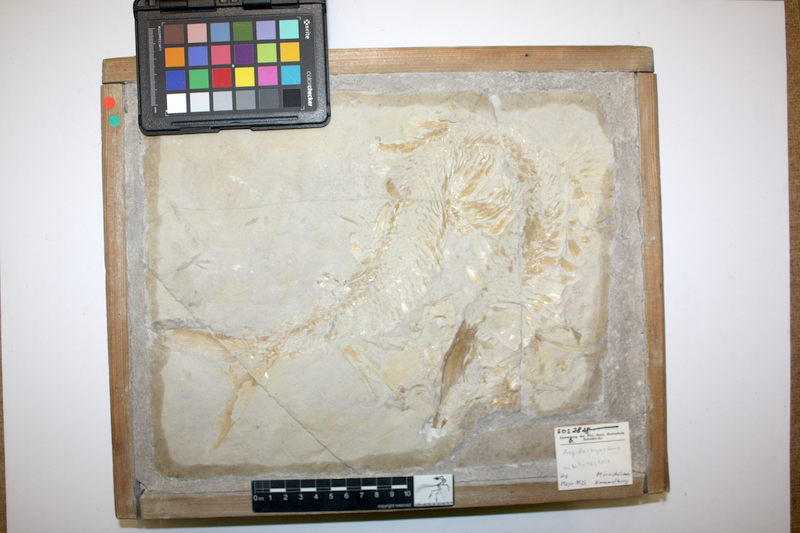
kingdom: Animalia
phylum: Chordata
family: Aspidorhynchidae
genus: Aspidorhynchus
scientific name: Aspidorhynchus acutirostris
